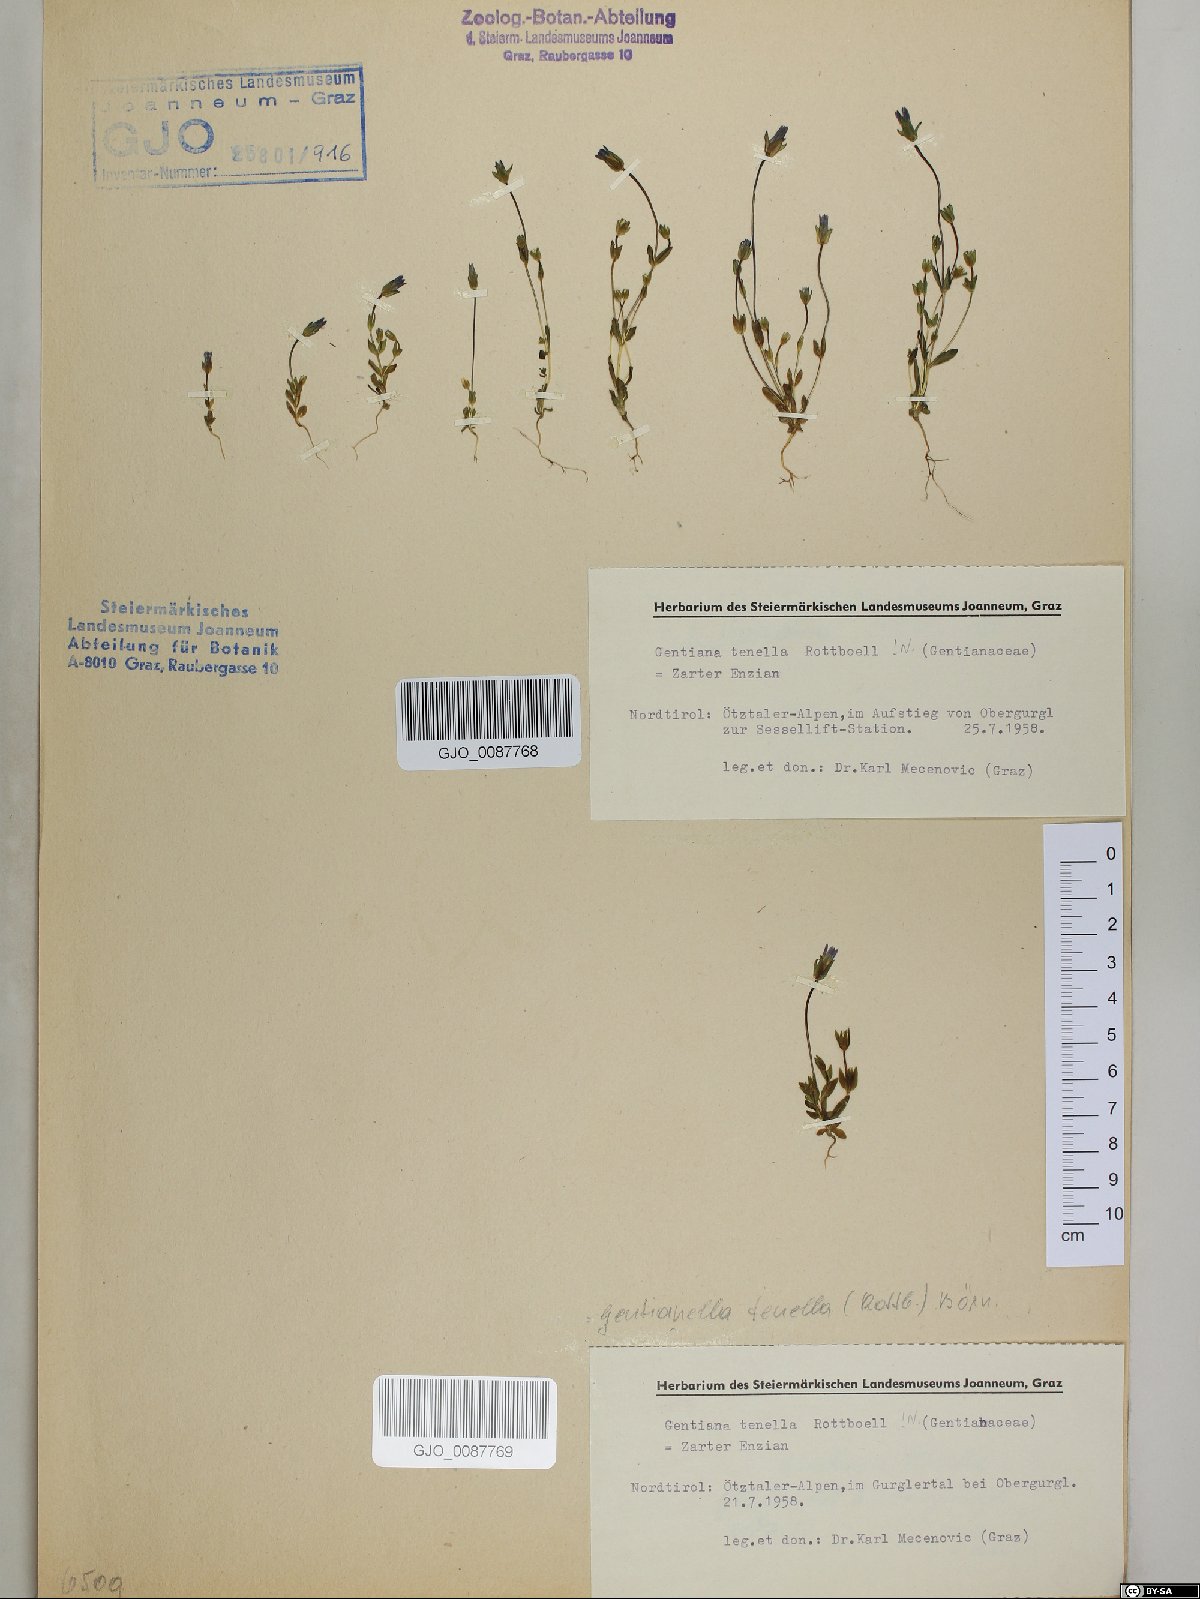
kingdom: Plantae
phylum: Tracheophyta
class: Magnoliopsida
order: Gentianales
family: Gentianaceae
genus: Comastoma
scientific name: Comastoma tenellum
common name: Dane's dwarf gentian
